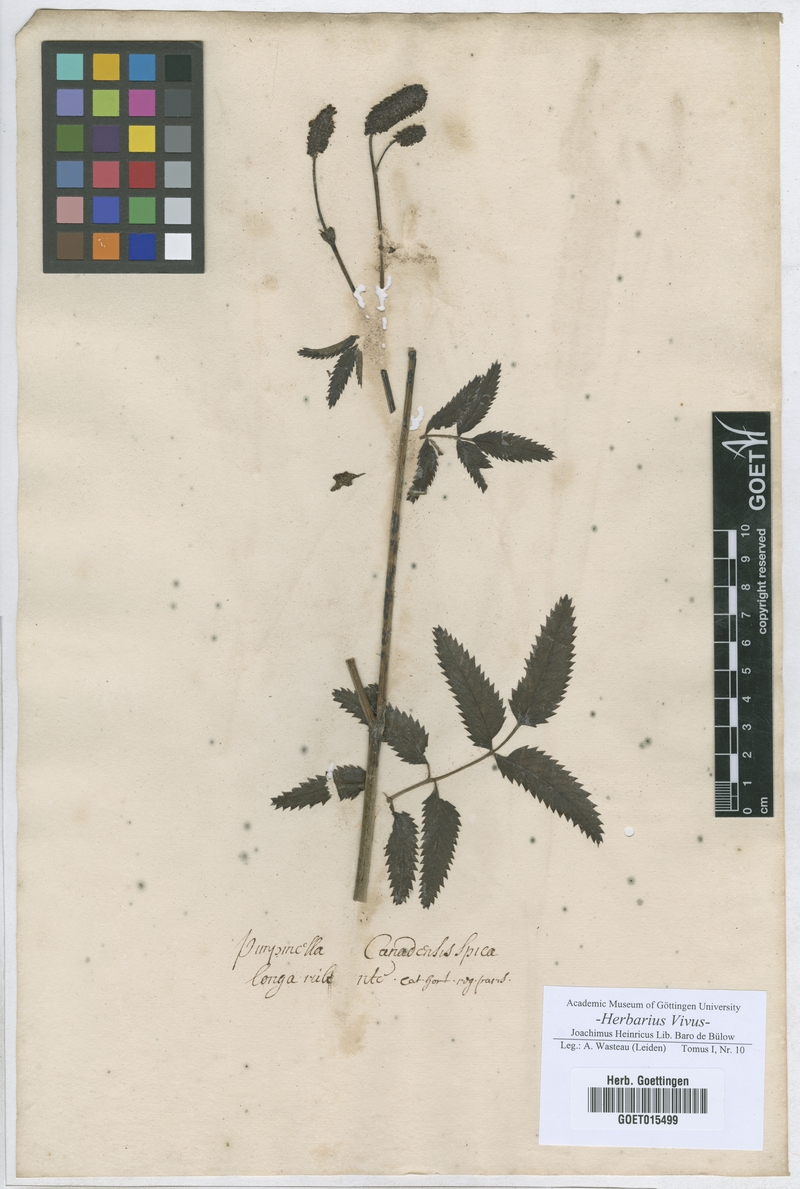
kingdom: Plantae
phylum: Tracheophyta
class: Magnoliopsida
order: Rosales
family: Rosaceae
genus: Sanguisorba
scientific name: Sanguisorba officinalis
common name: Great burnet
